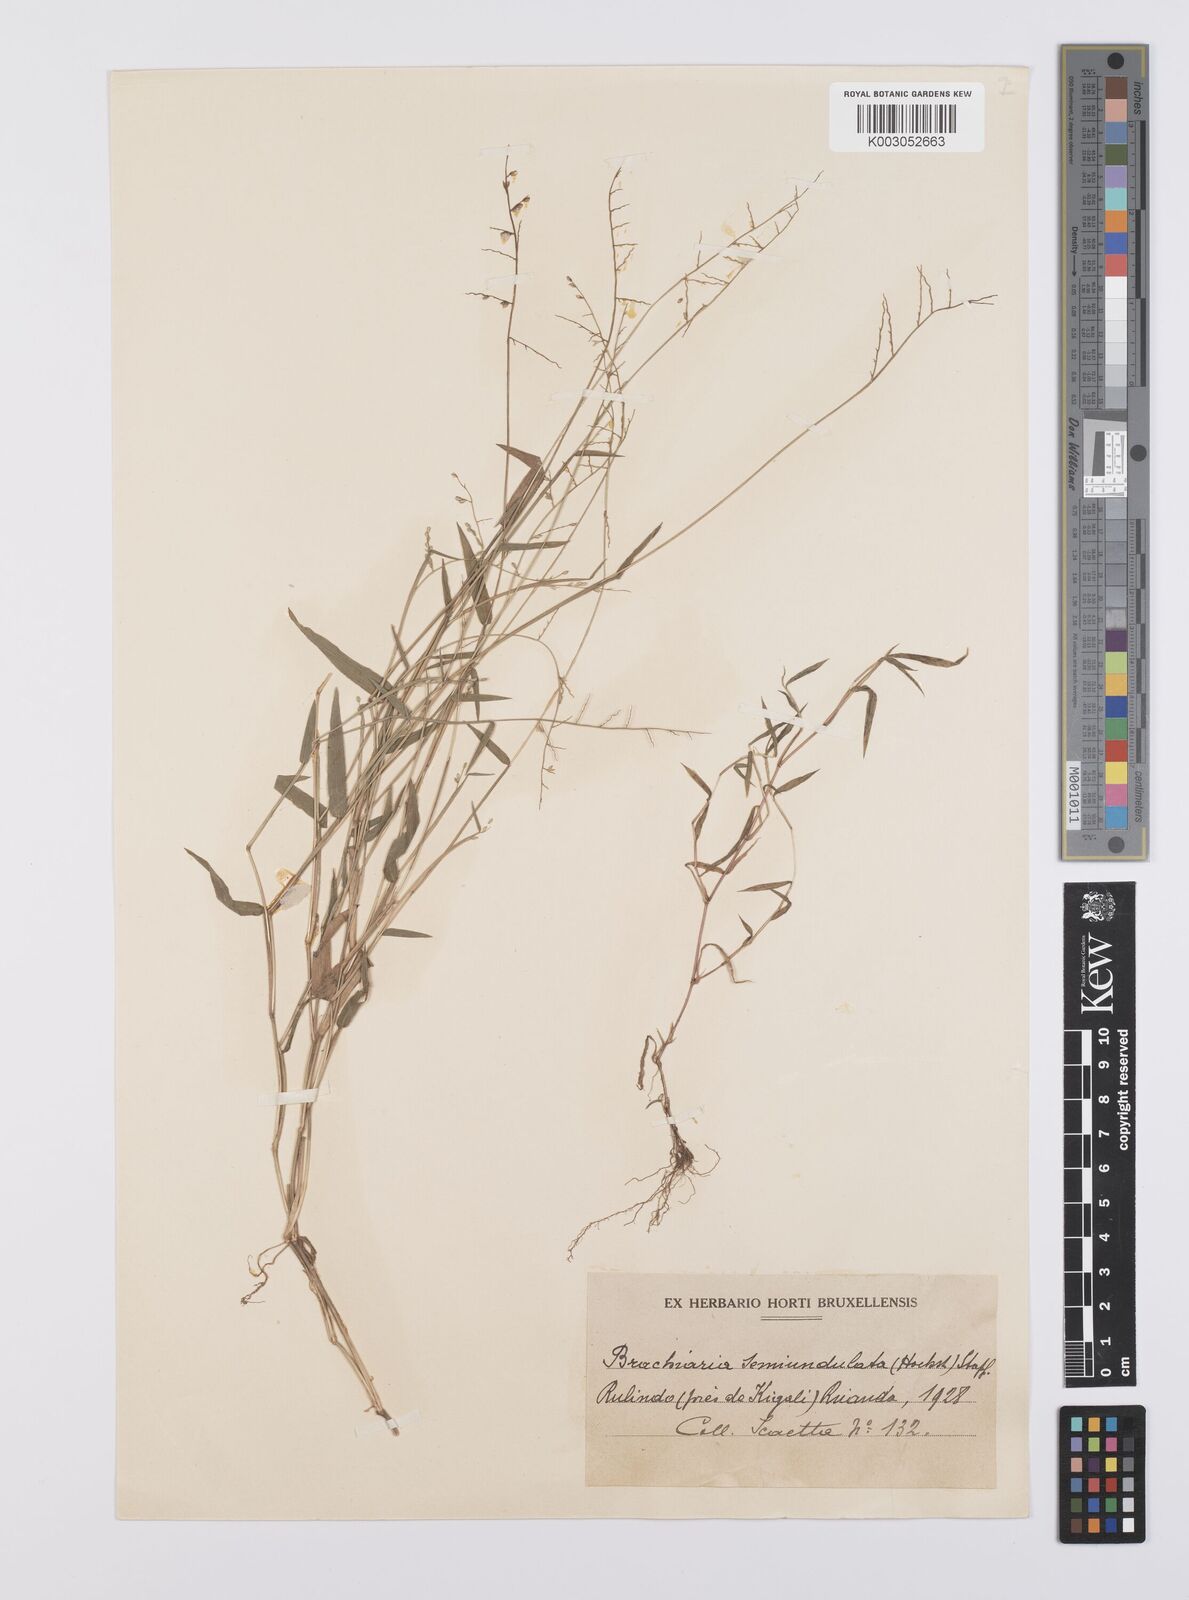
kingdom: Plantae
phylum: Tracheophyta
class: Liliopsida
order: Poales
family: Poaceae
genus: Urochloa
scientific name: Urochloa comata
